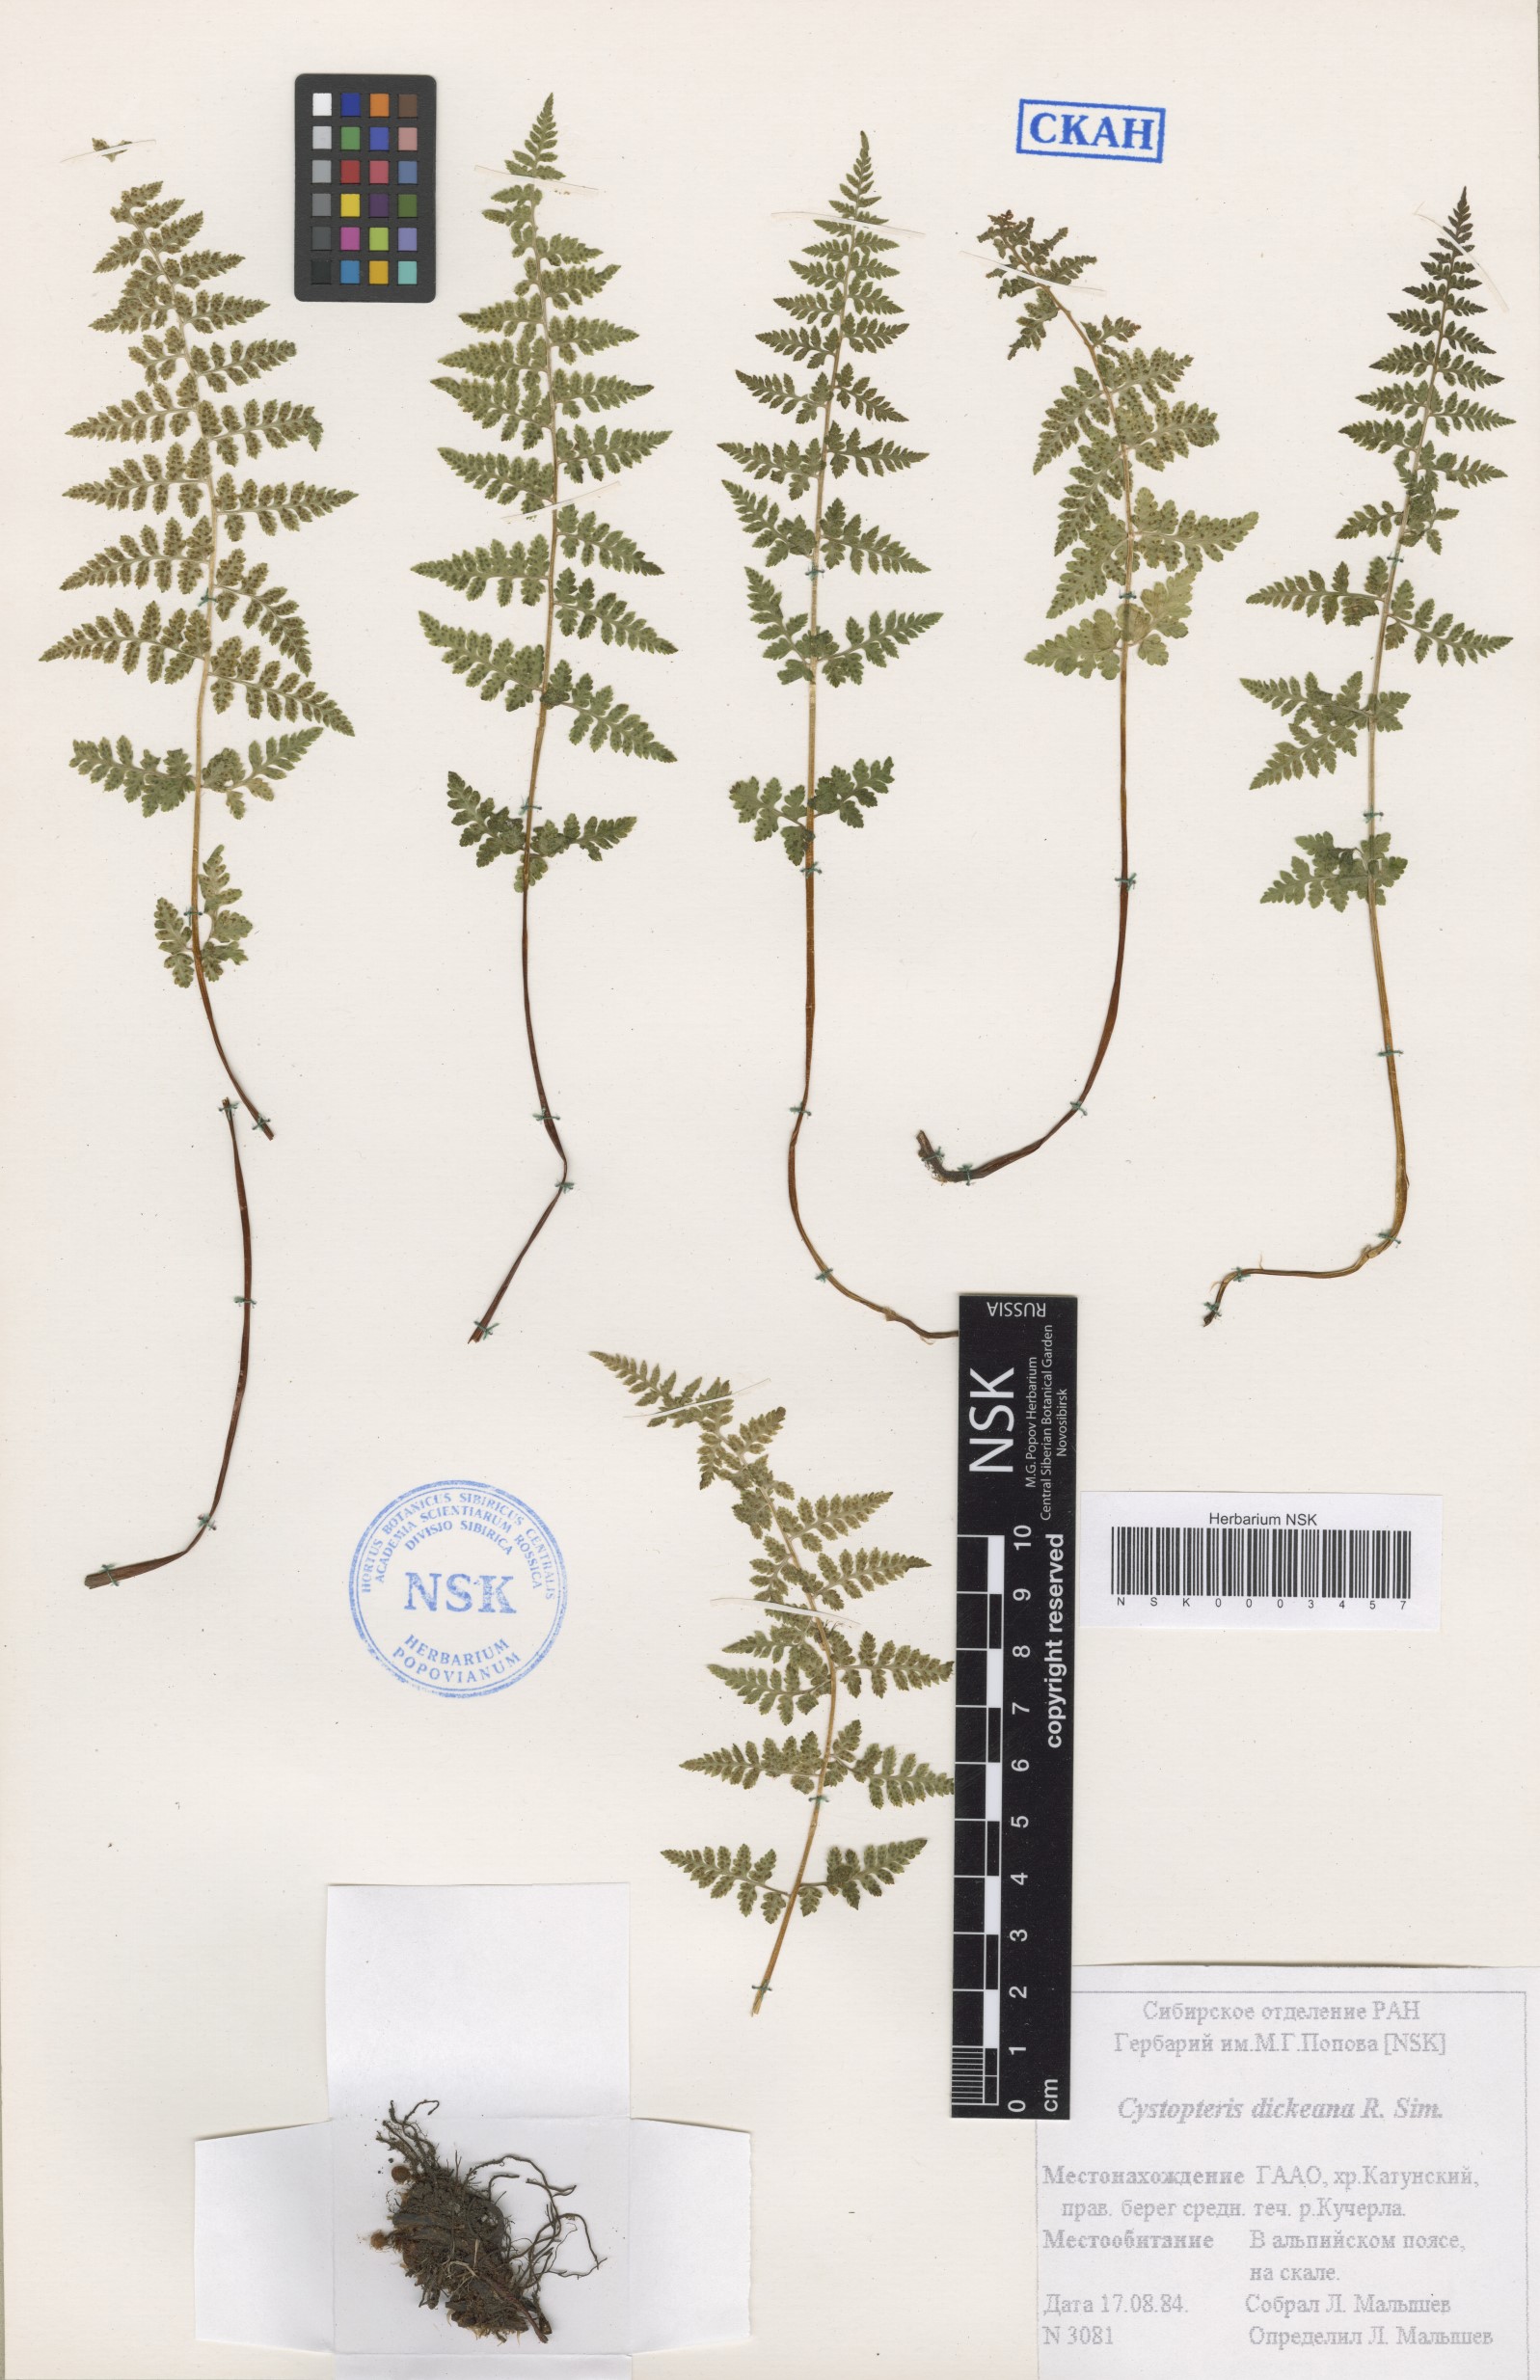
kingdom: Plantae
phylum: Tracheophyta
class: Polypodiopsida
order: Polypodiales
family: Cystopteridaceae
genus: Cystopteris
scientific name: Cystopteris dickieana
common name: Dickie's bladder-fern
